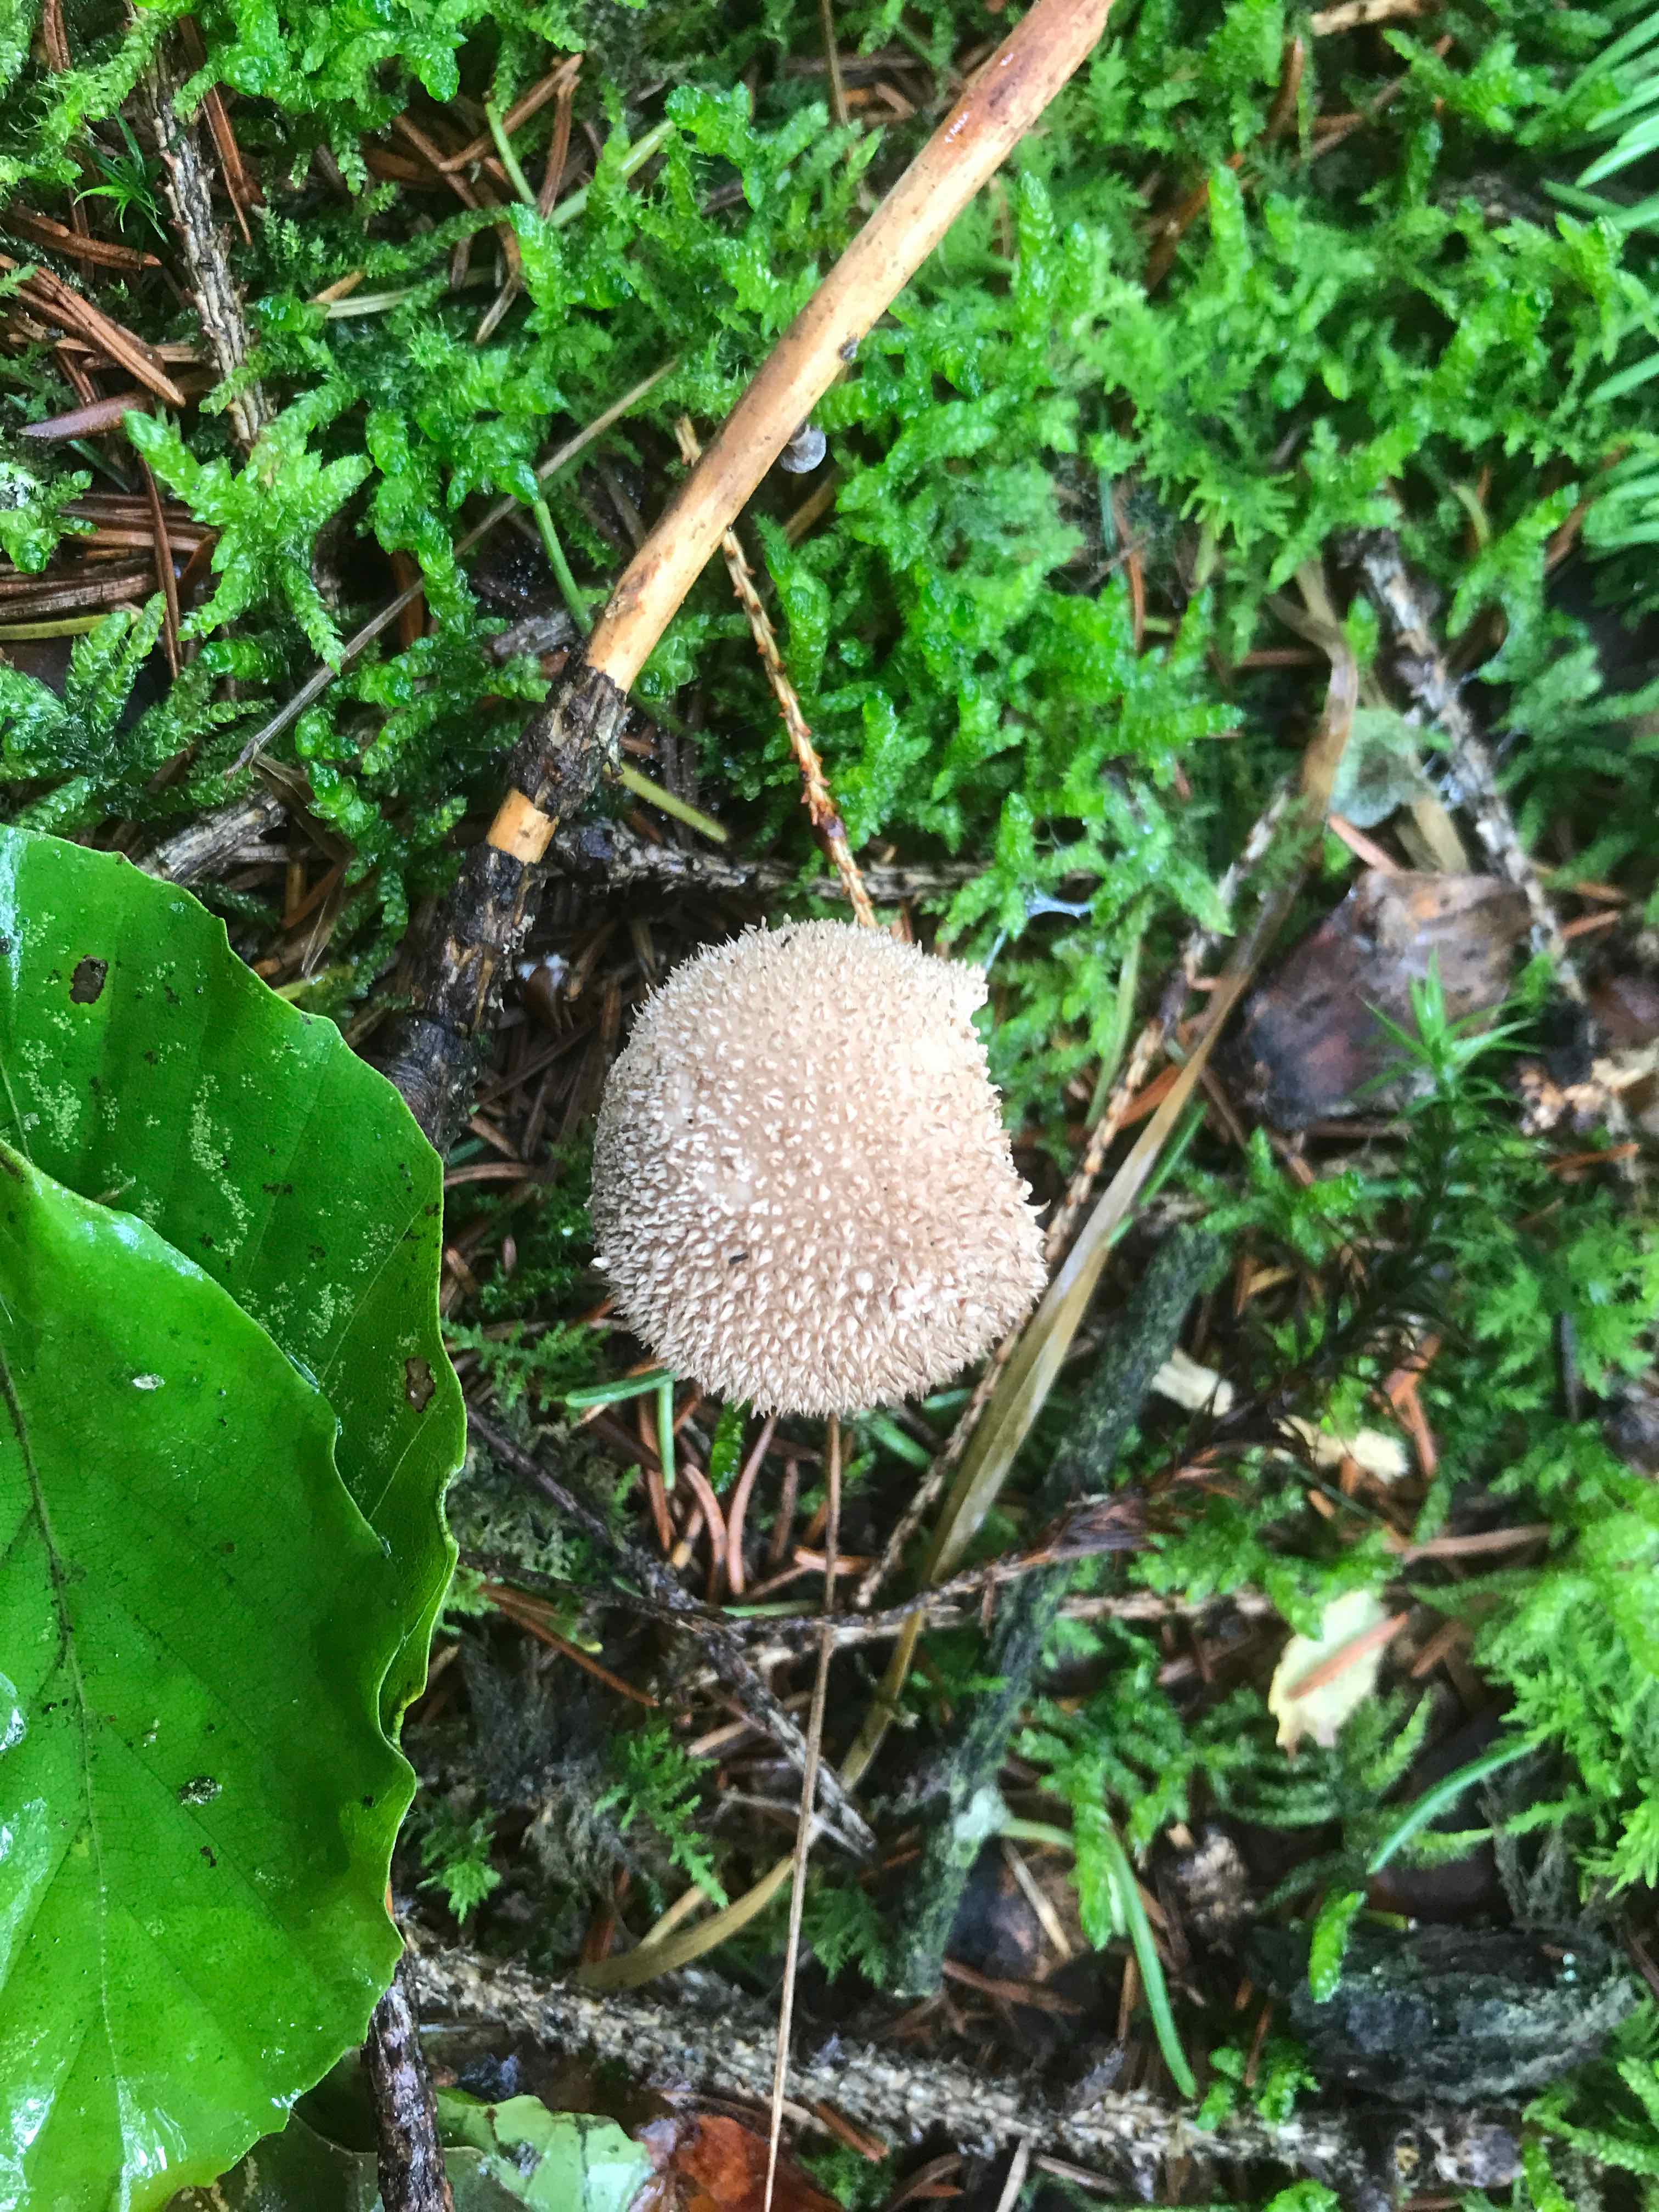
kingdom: Fungi
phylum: Basidiomycota
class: Agaricomycetes
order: Agaricales
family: Lycoperdaceae
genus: Lycoperdon
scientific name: Lycoperdon nigrescens
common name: sortagtig støvbold
